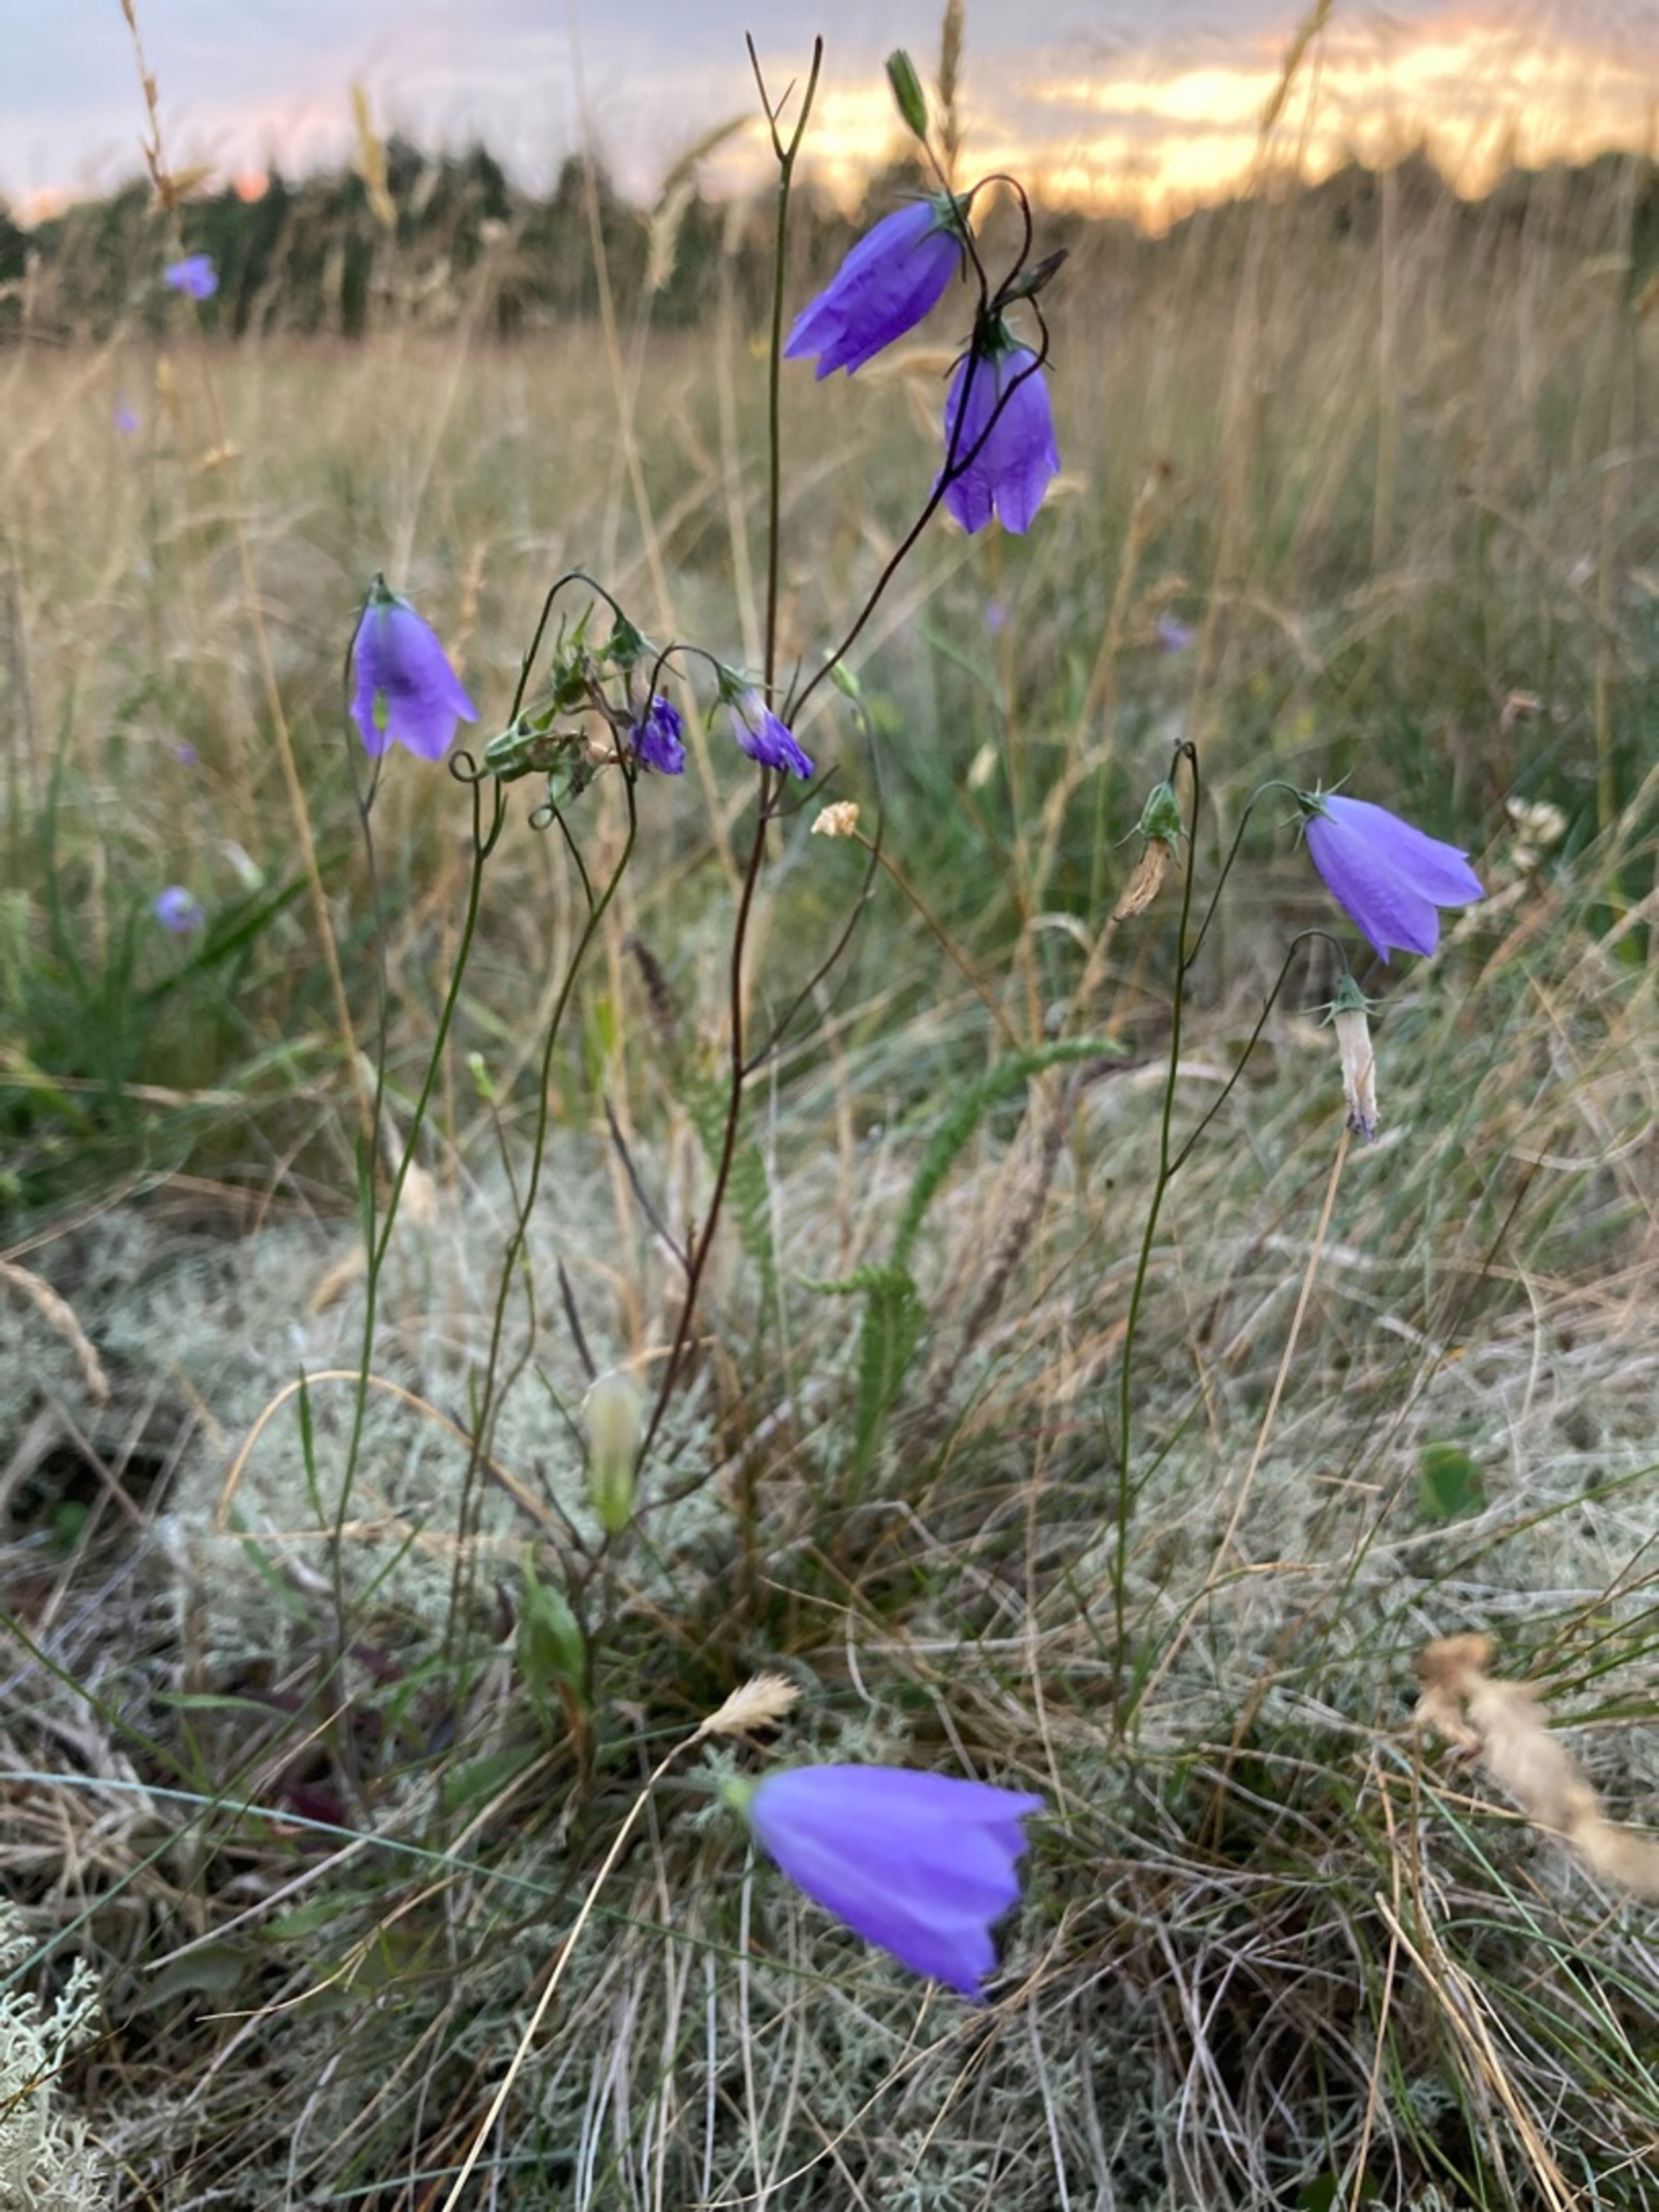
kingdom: Plantae
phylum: Tracheophyta
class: Magnoliopsida
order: Asterales
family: Campanulaceae
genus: Campanula
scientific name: Campanula rotundifolia
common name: Liden klokke
